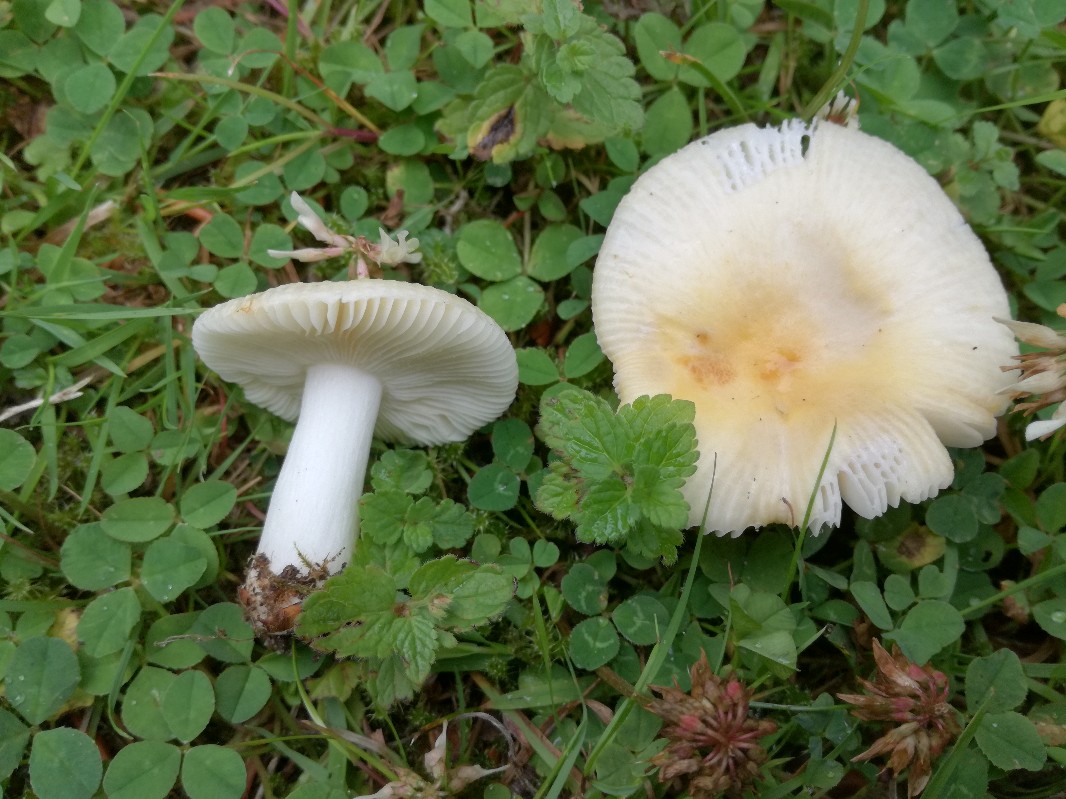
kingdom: Fungi
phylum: Basidiomycota
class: Agaricomycetes
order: Russulales
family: Russulaceae
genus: Russula
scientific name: Russula solaris
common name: sol-skørhat
